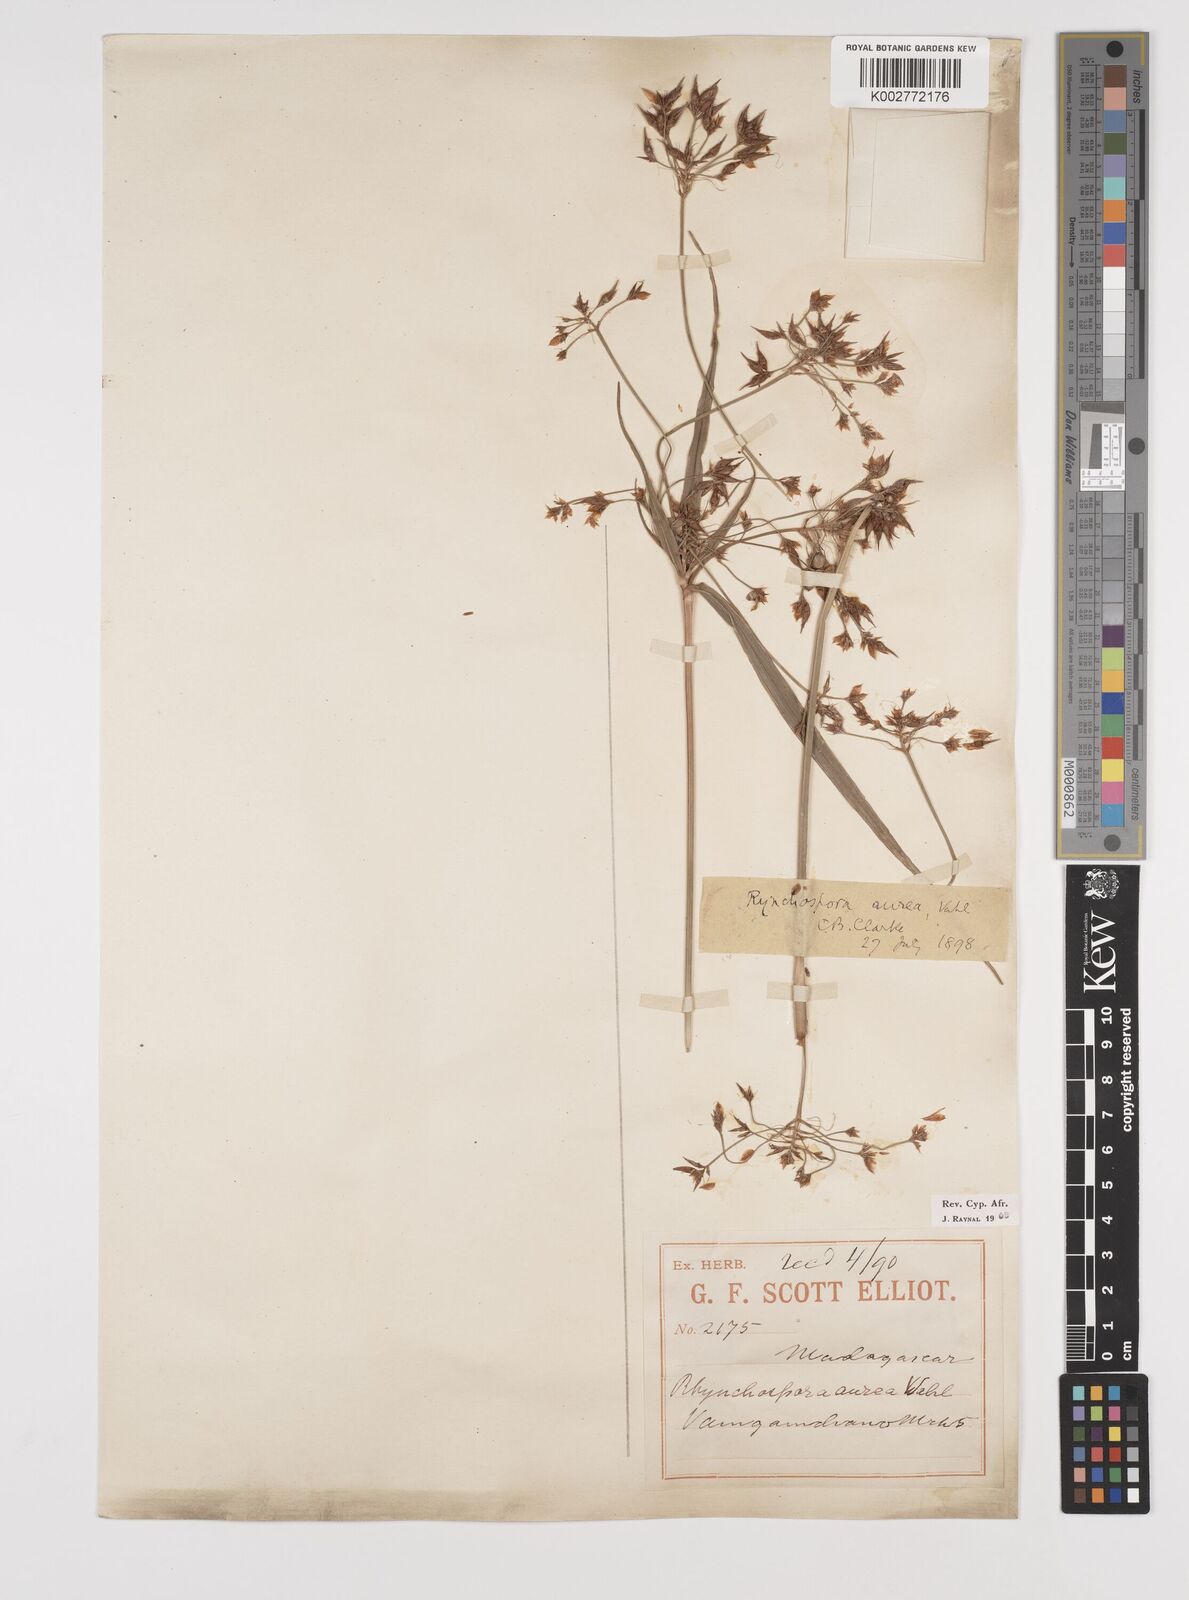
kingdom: Plantae
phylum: Tracheophyta
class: Liliopsida
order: Poales
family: Cyperaceae
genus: Rhynchospora
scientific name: Rhynchospora corymbosa
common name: Golden beak sedge
